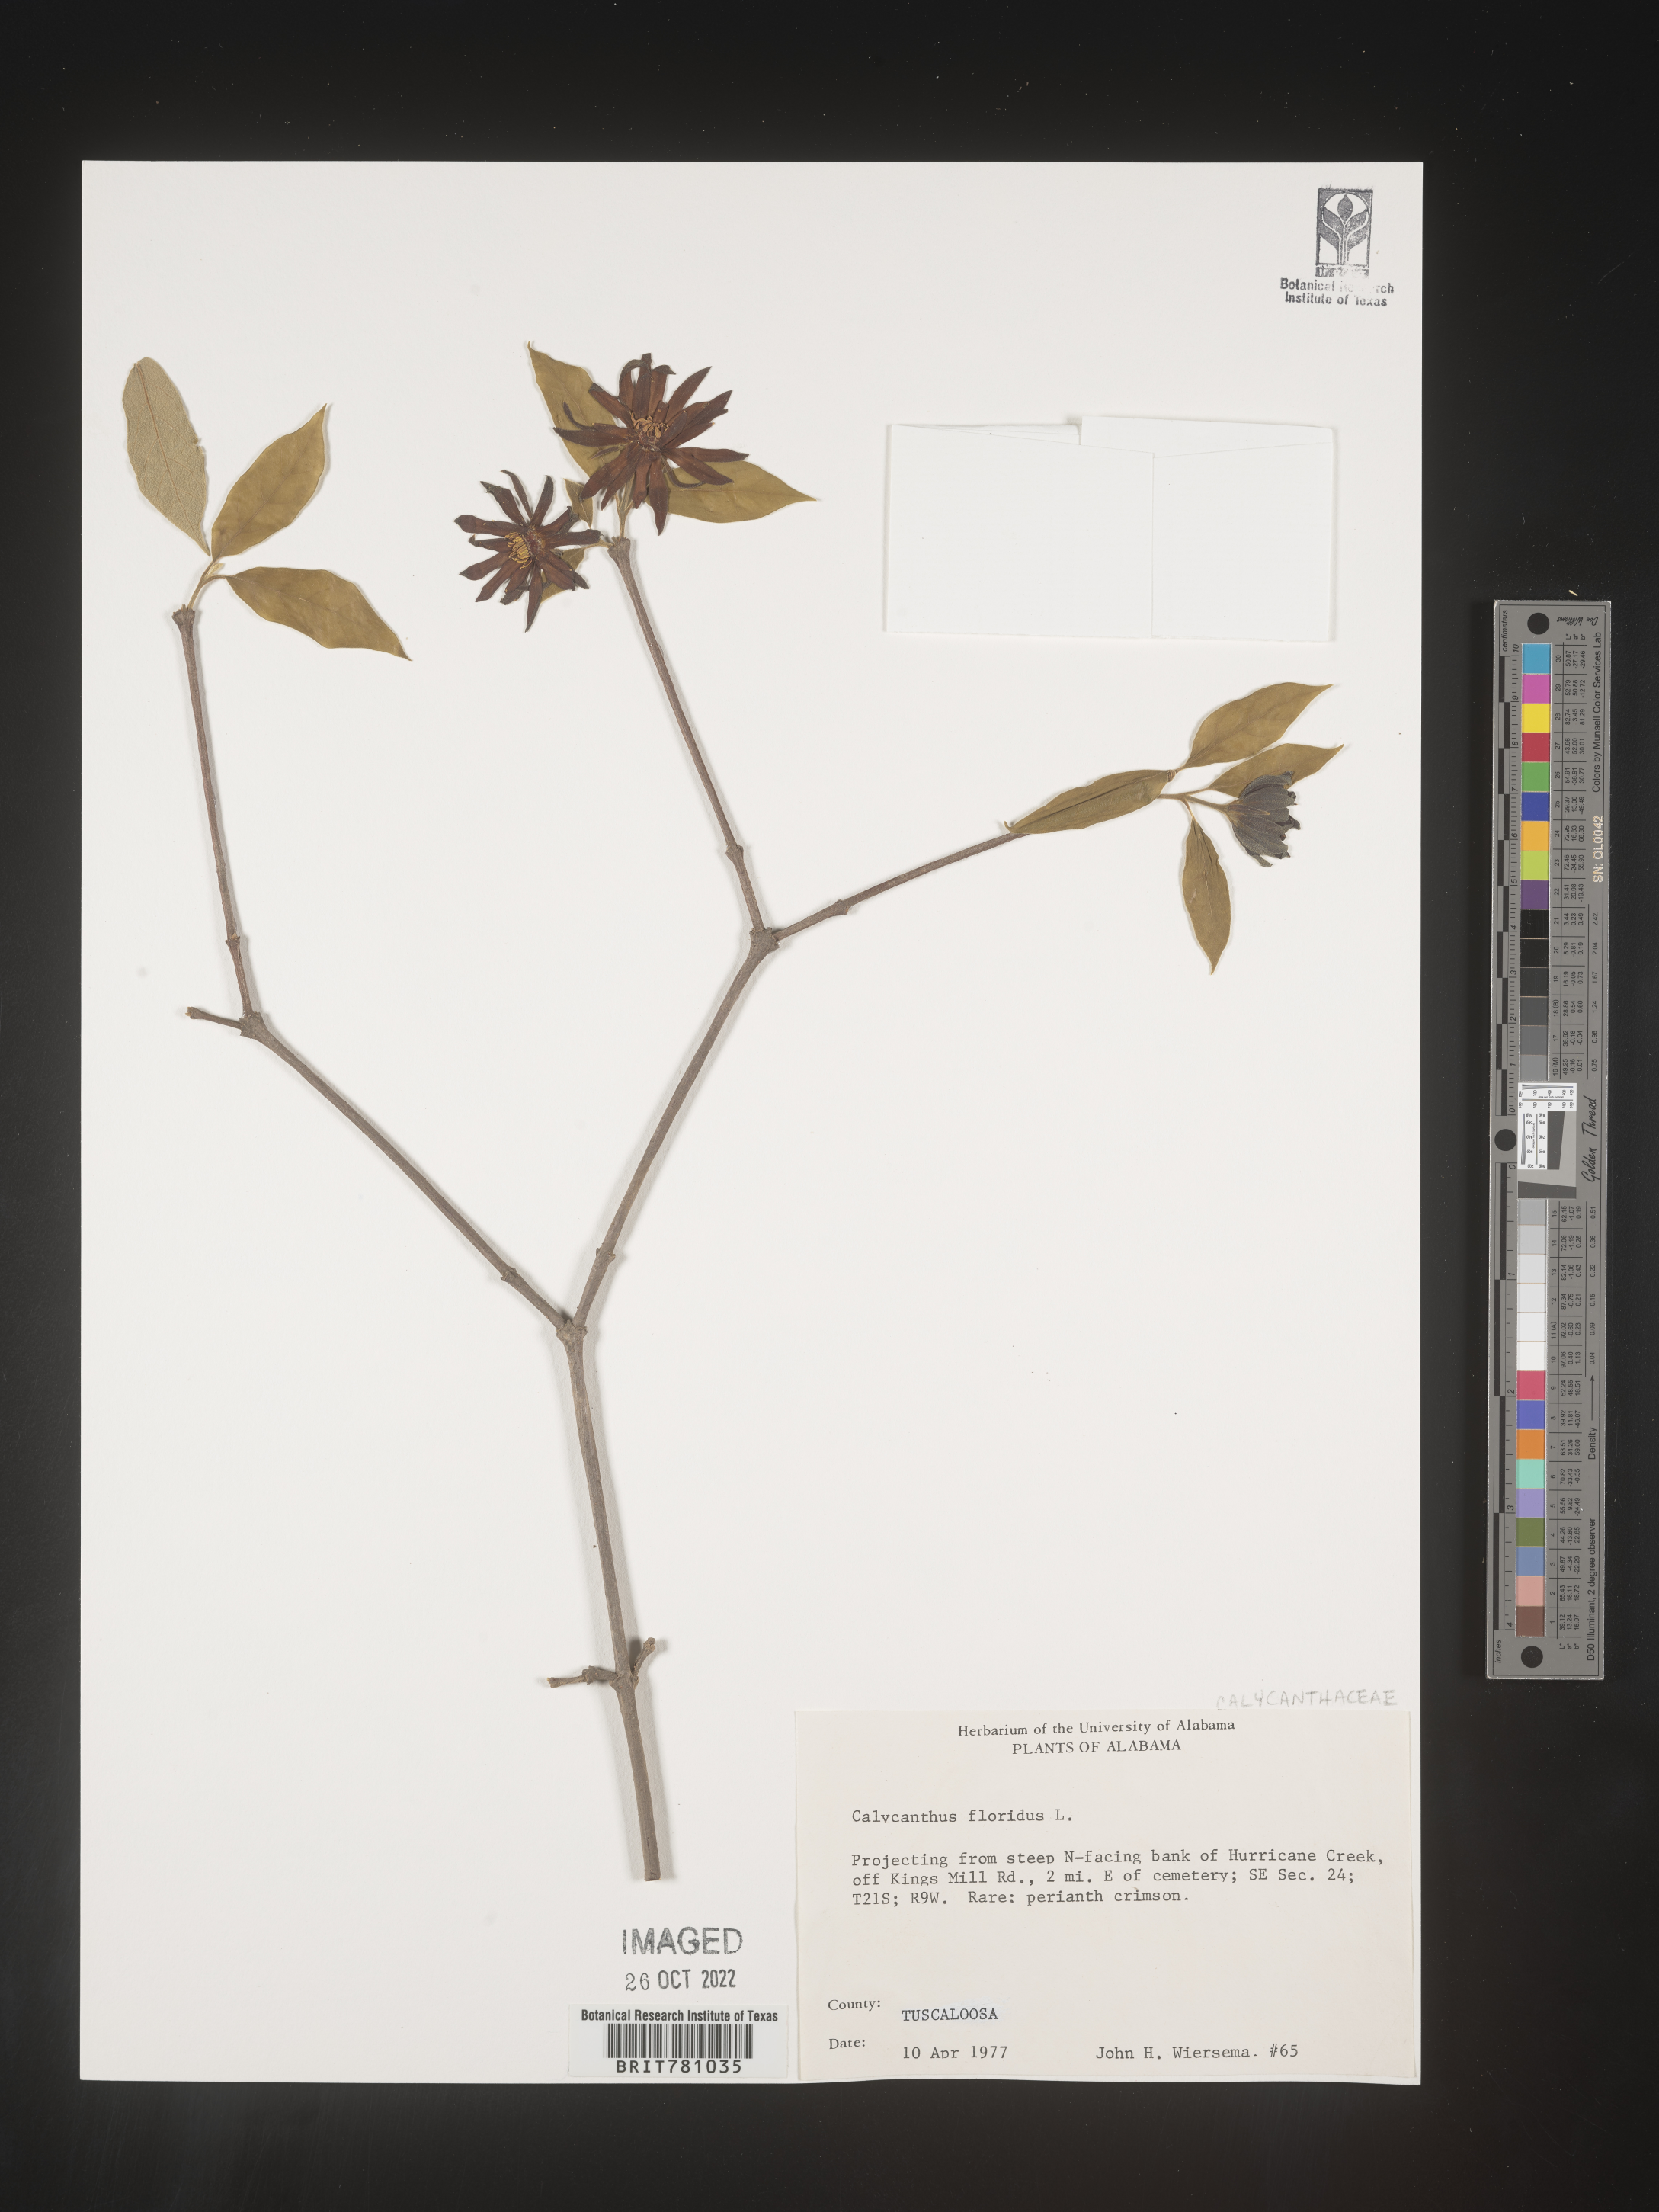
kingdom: Plantae
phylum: Tracheophyta
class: Magnoliopsida
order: Laurales
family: Calycanthaceae
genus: Calycanthus
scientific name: Calycanthus floridus
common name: Carolina-allspice
